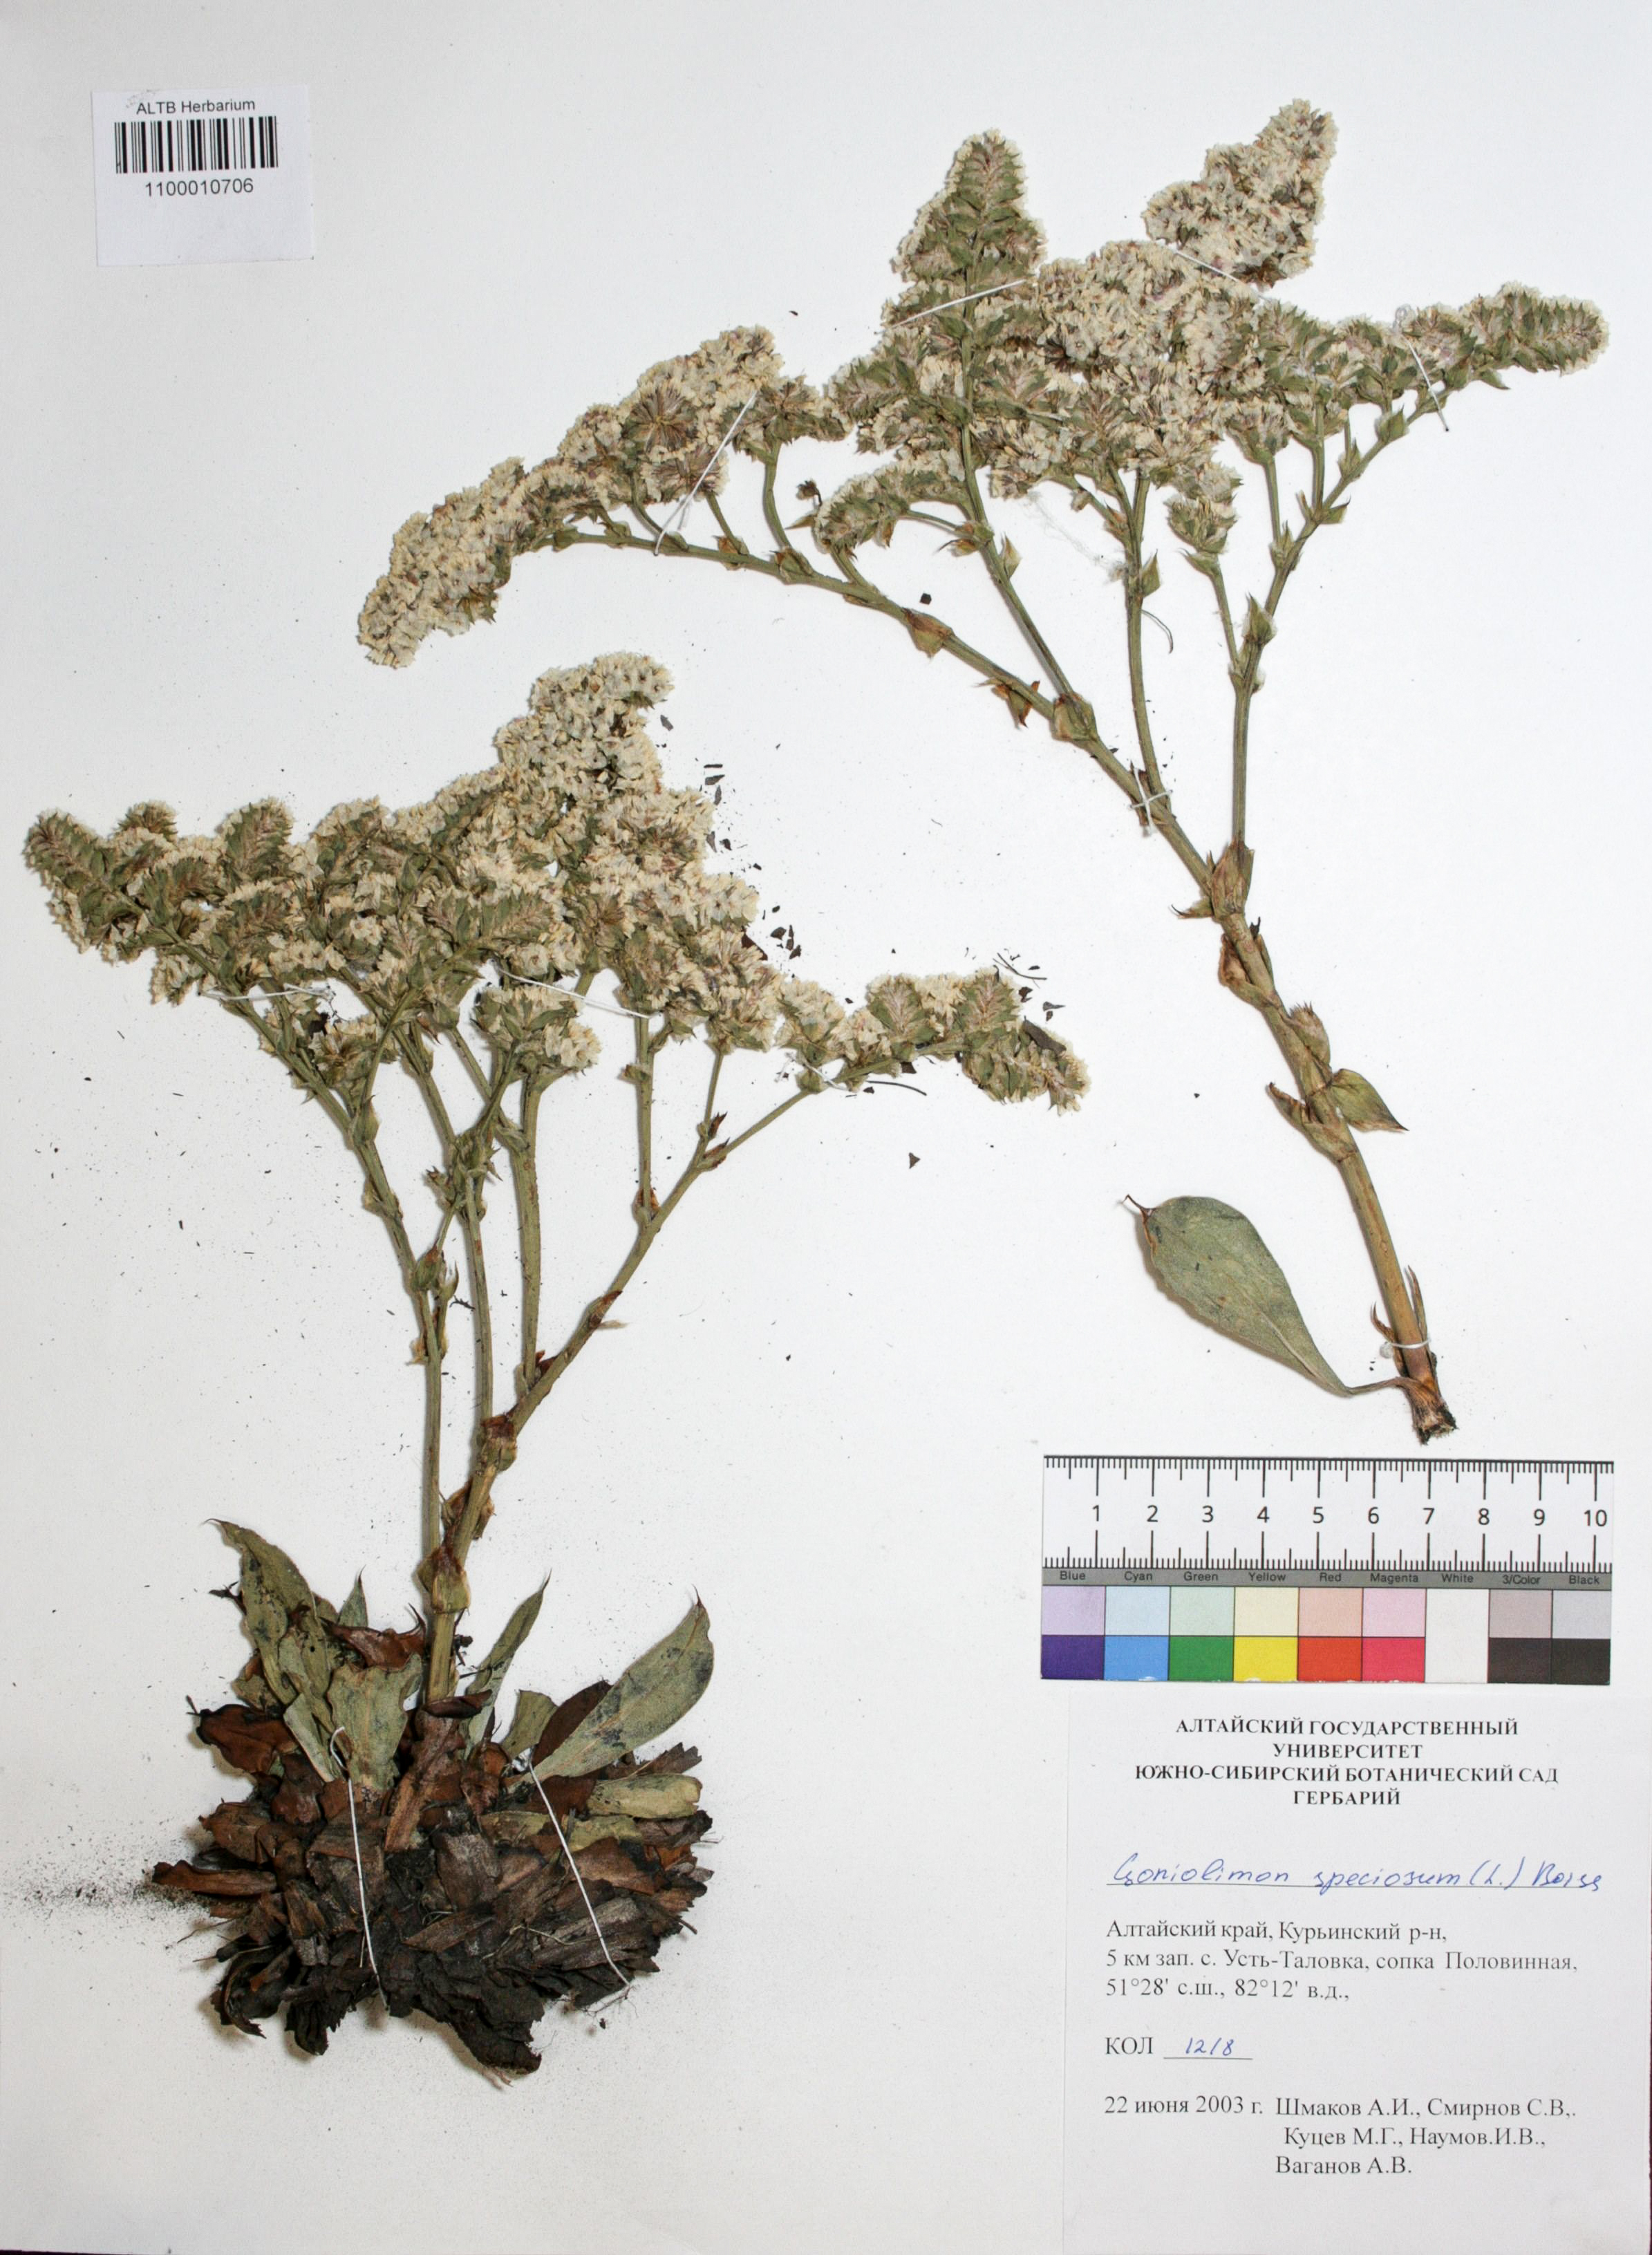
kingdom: Plantae
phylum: Tracheophyta
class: Magnoliopsida
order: Caryophyllales
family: Plumbaginaceae
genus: Goniolimon
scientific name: Goniolimon speciosum
